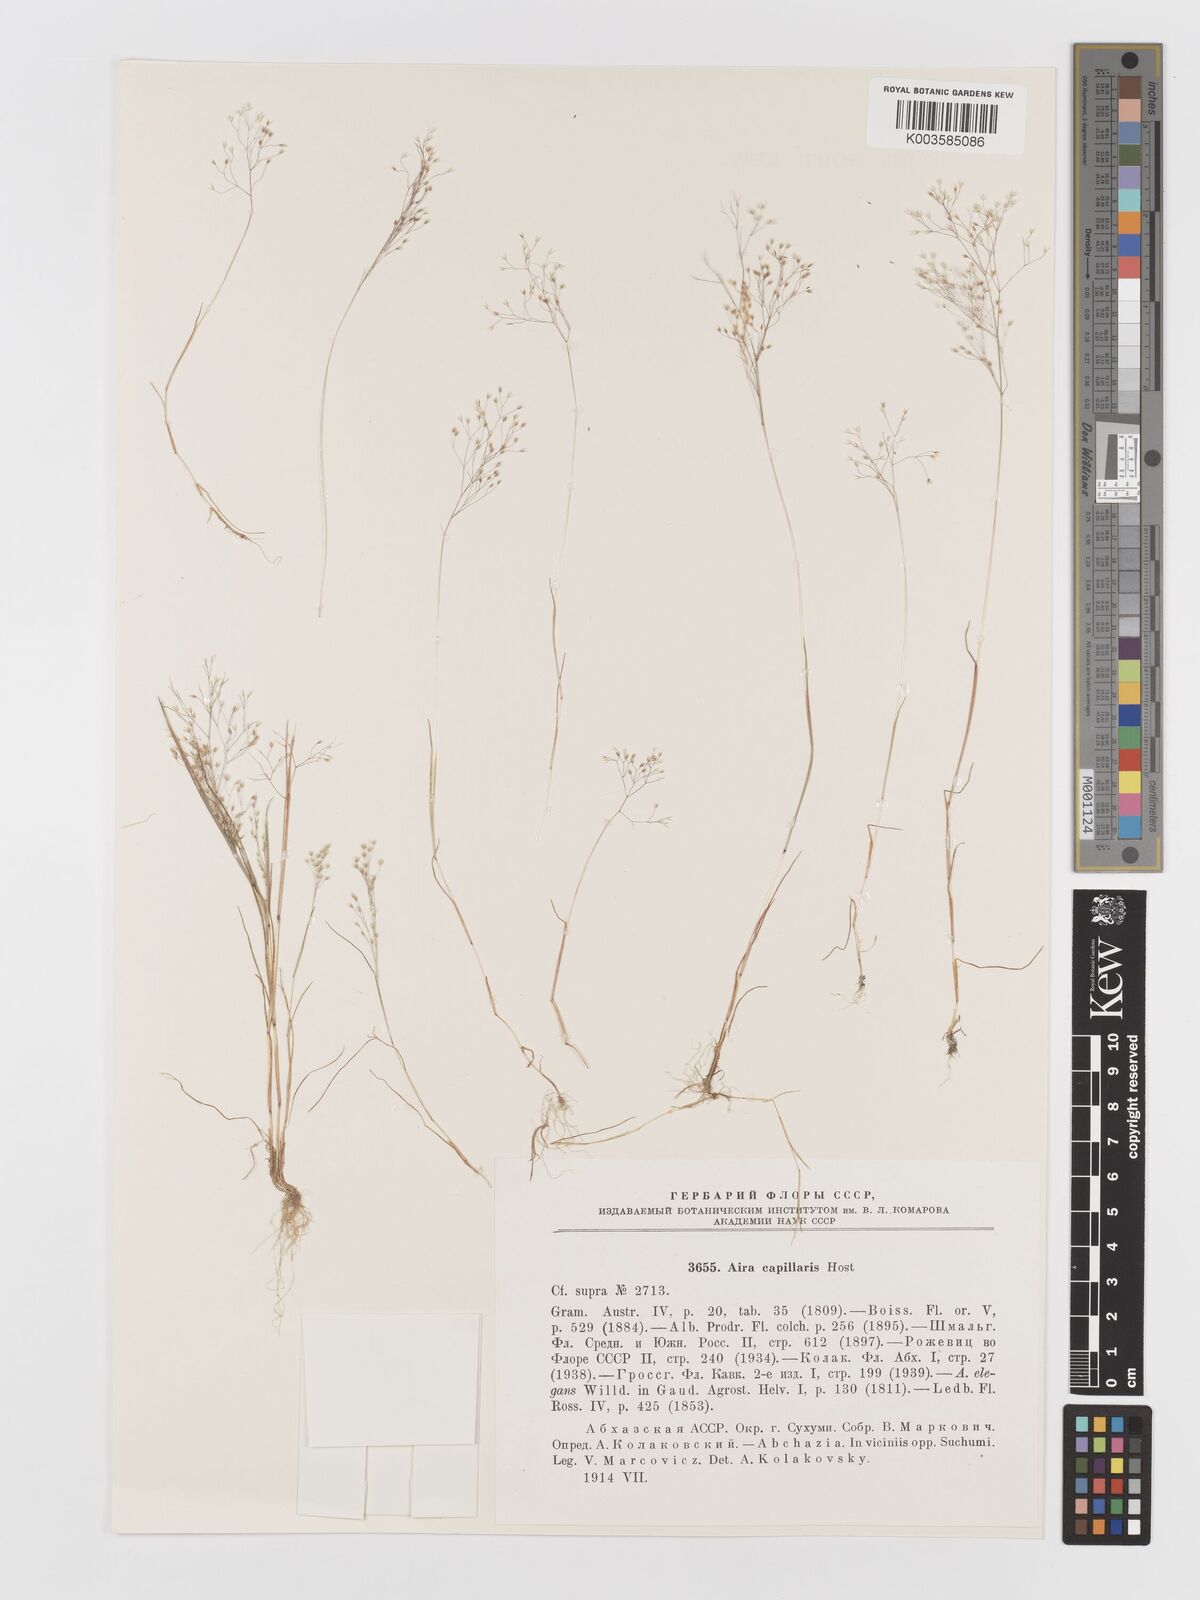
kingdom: Plantae
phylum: Tracheophyta
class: Liliopsida
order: Poales
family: Poaceae
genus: Aira
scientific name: Aira elegans
